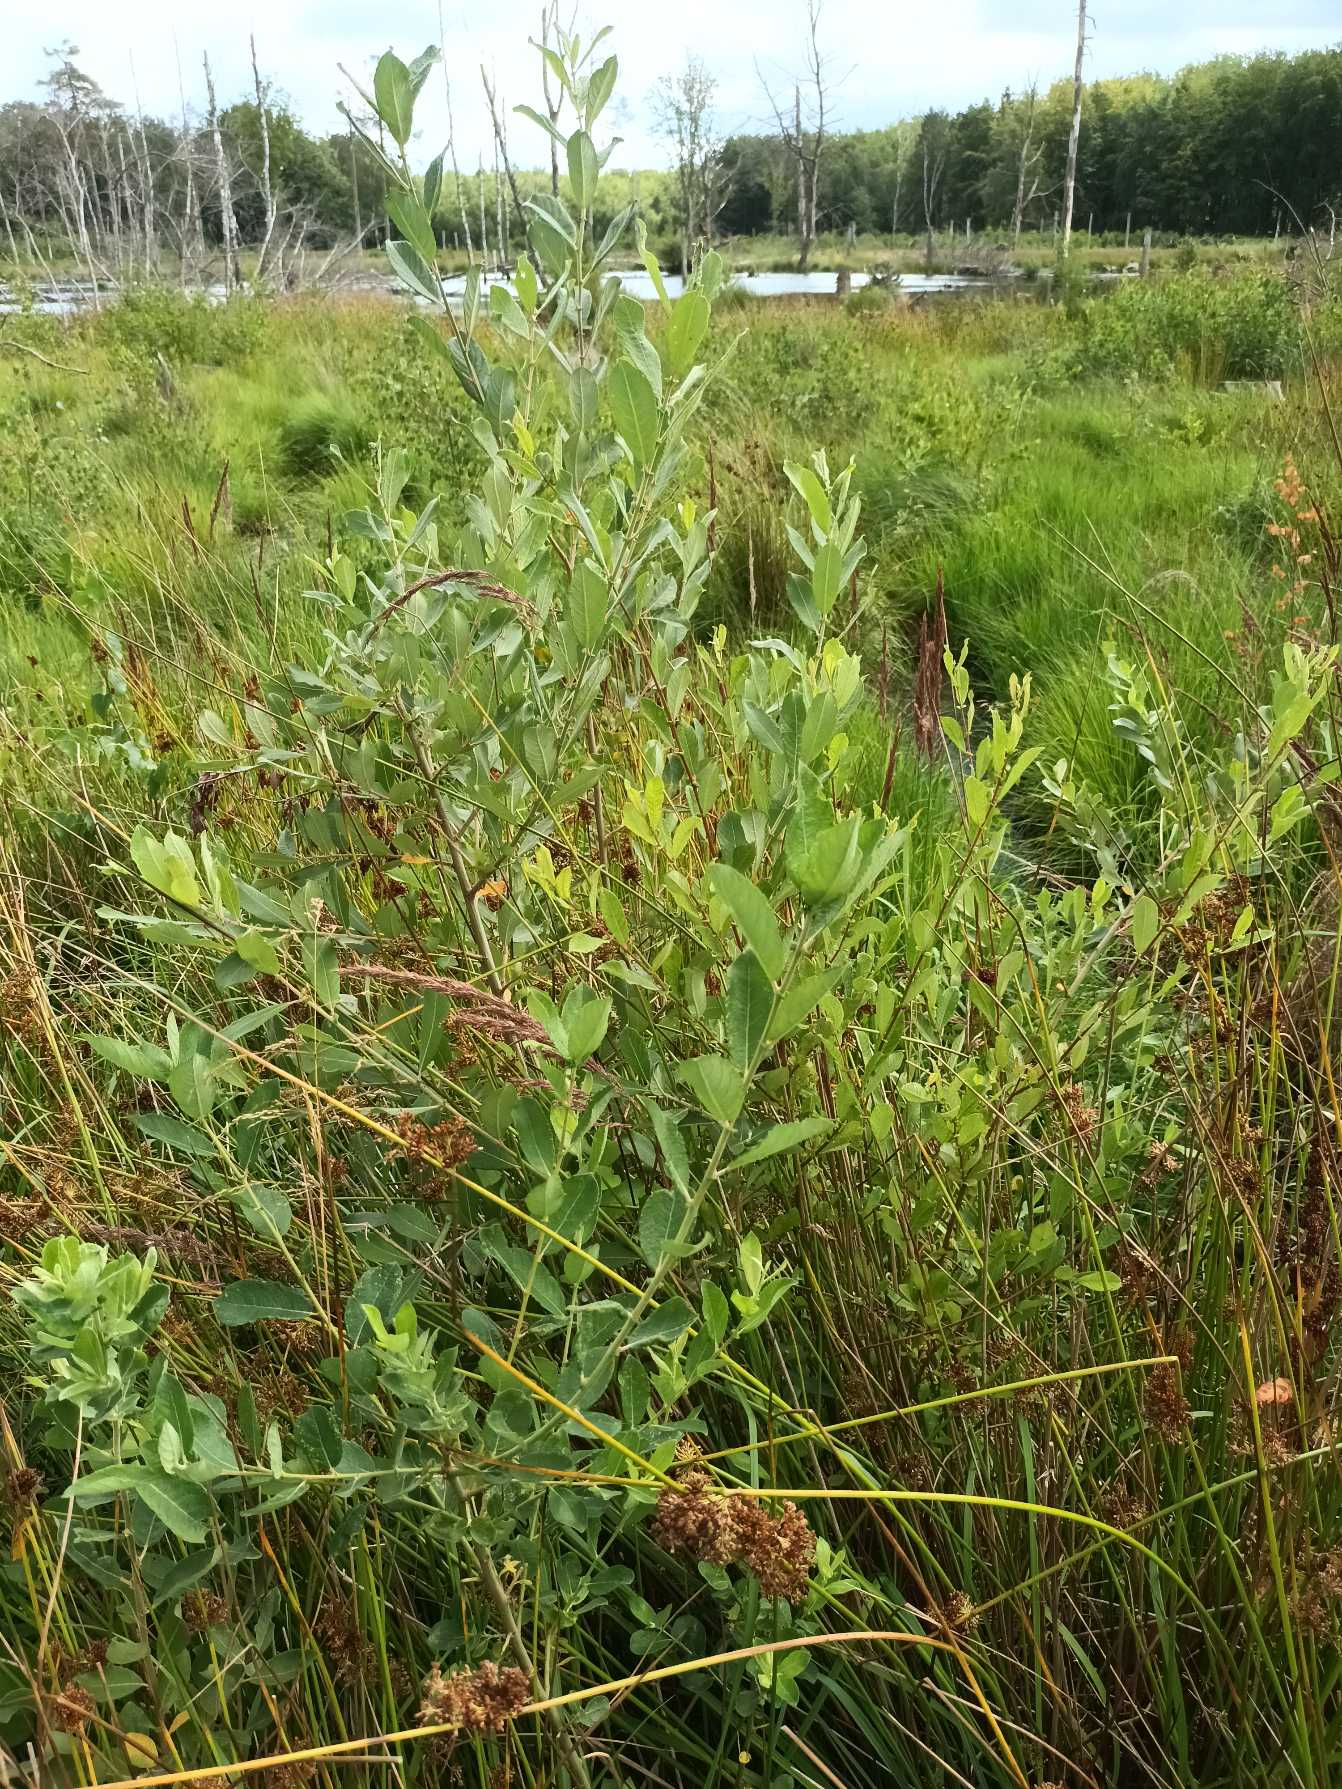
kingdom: Plantae
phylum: Tracheophyta
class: Magnoliopsida
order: Malpighiales
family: Salicaceae
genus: Salix
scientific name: Salix cinerea
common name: Grå-pil
